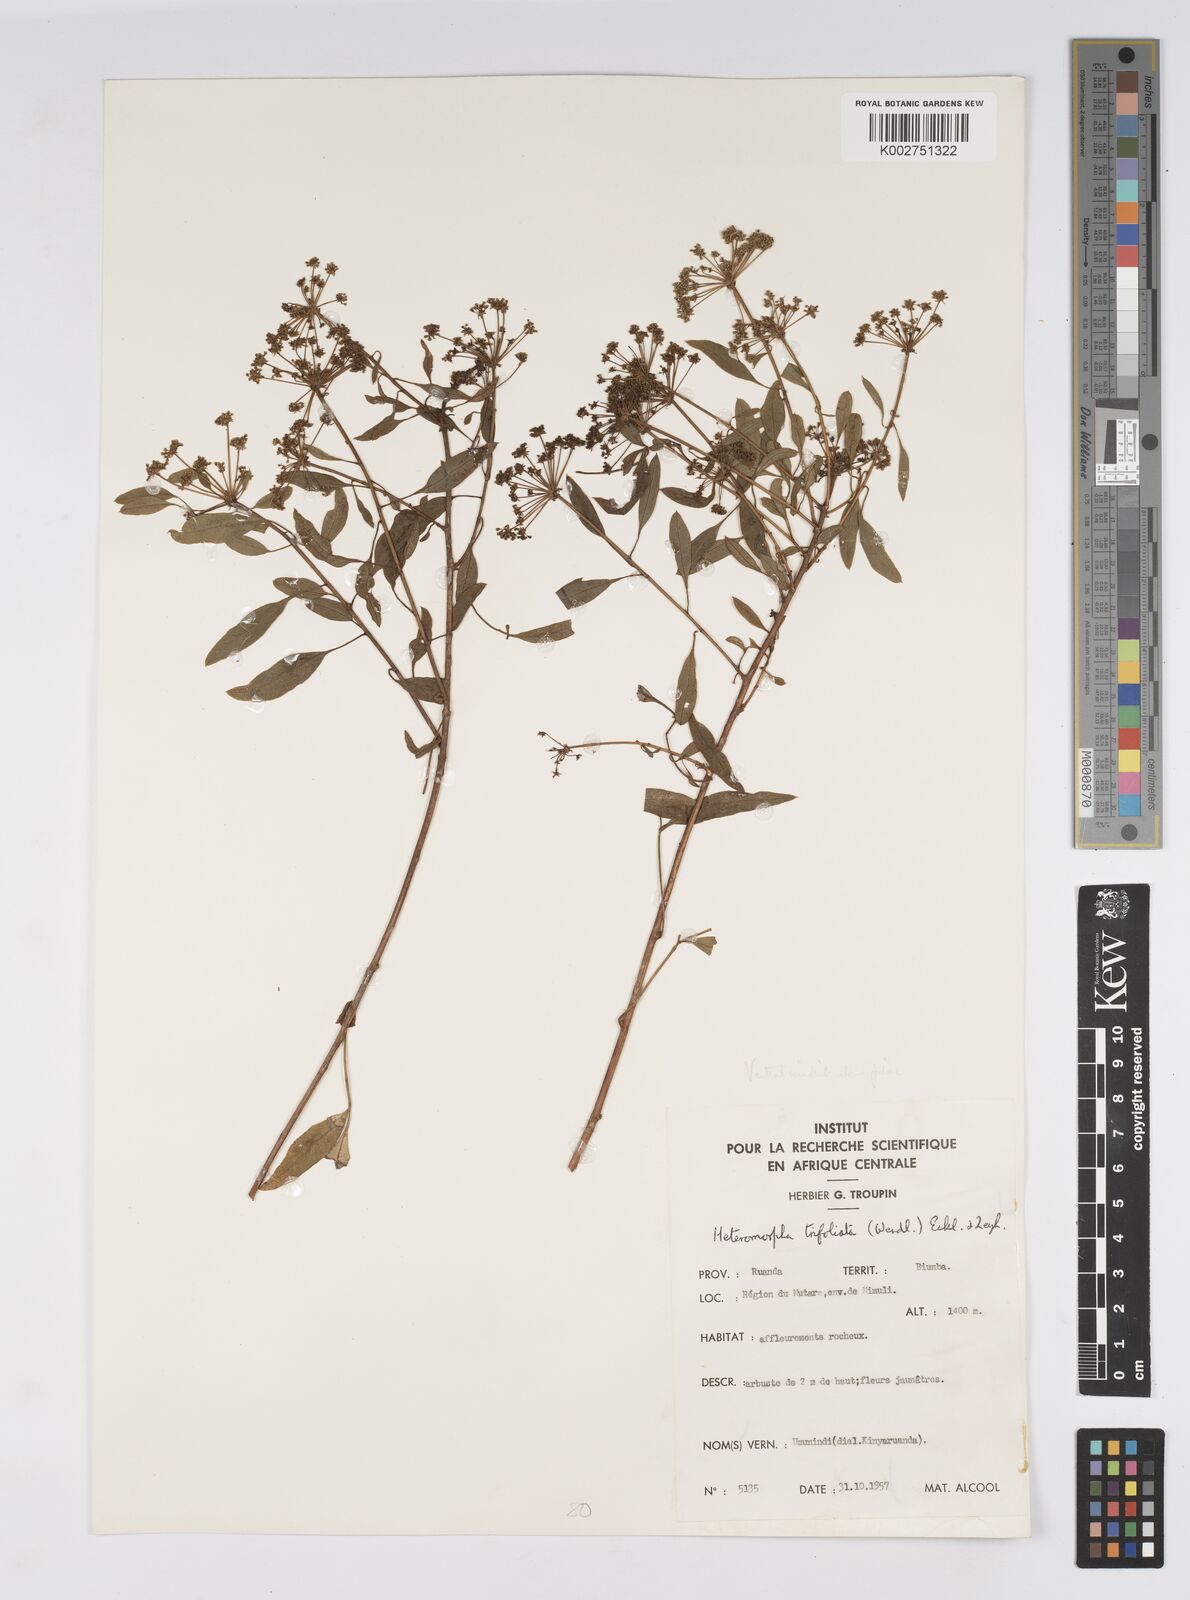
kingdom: Plantae
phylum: Tracheophyta
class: Magnoliopsida
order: Apiales
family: Apiaceae
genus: Heteromorpha
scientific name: Heteromorpha arborescens
